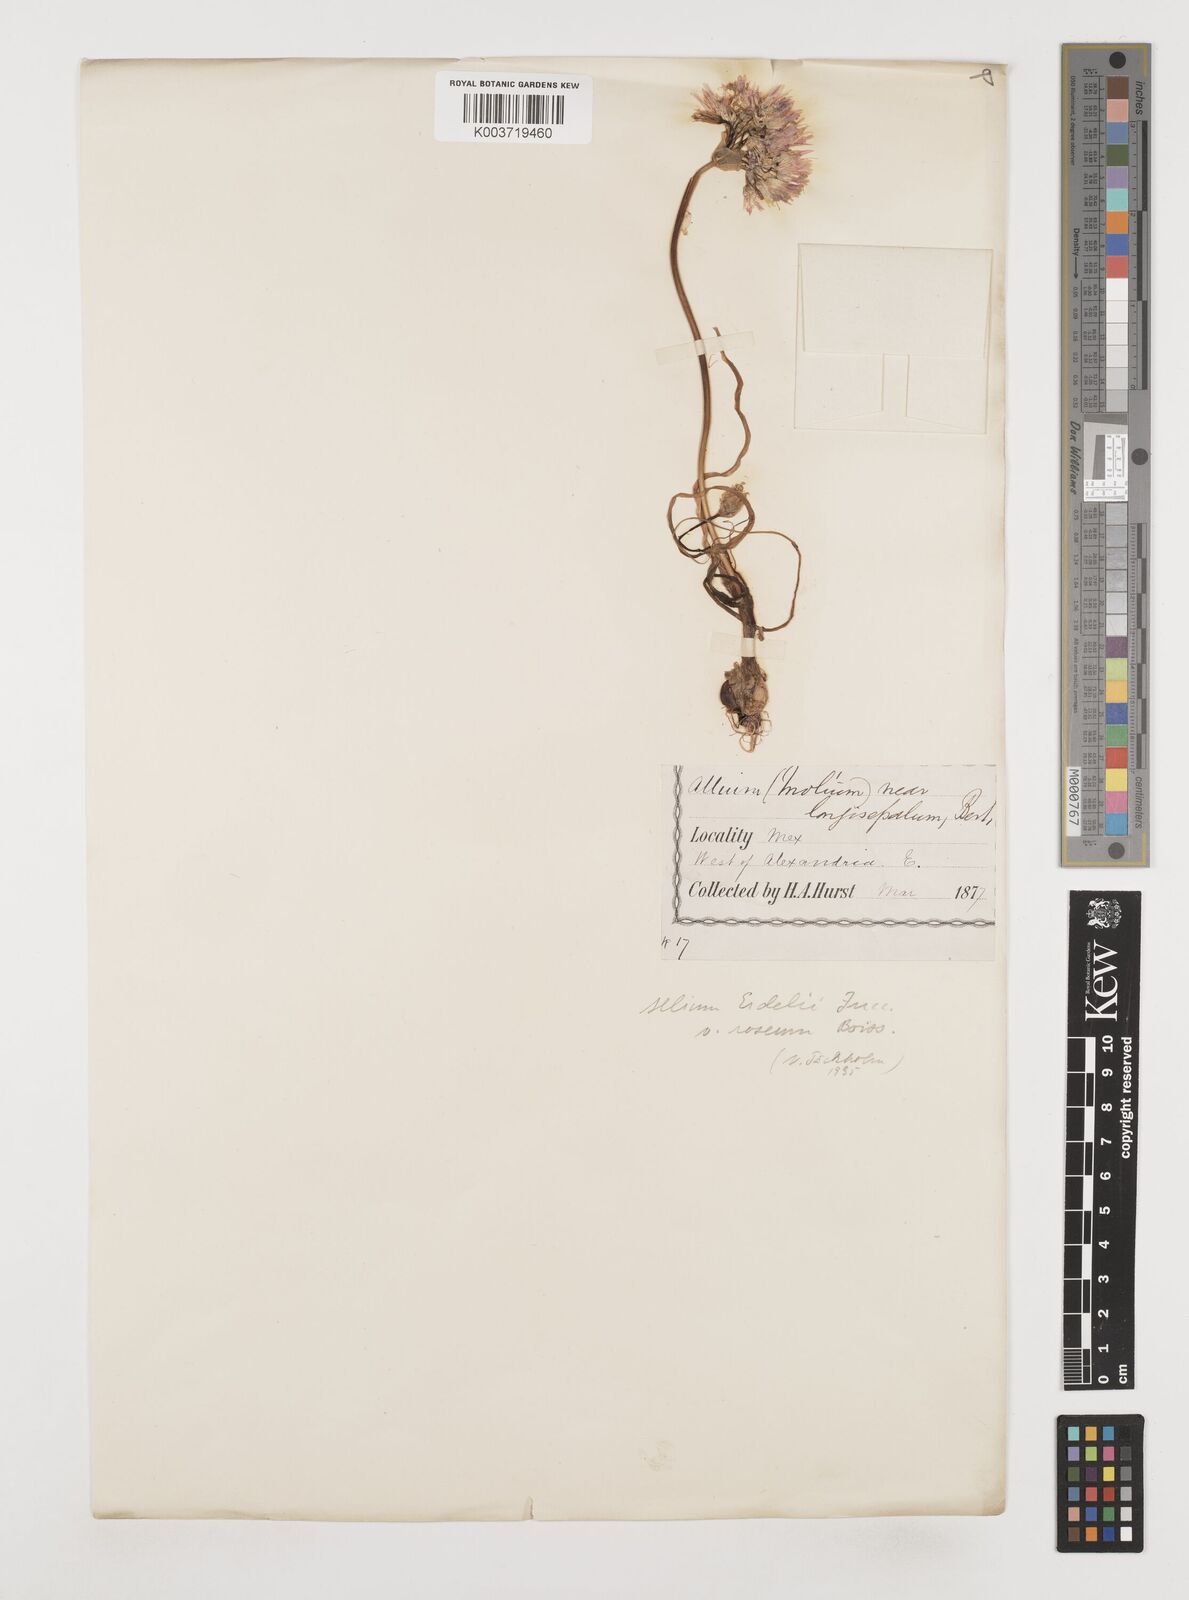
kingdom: Plantae
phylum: Tracheophyta
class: Liliopsida
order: Asparagales
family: Amaryllidaceae
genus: Allium
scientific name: Allium erdelii
